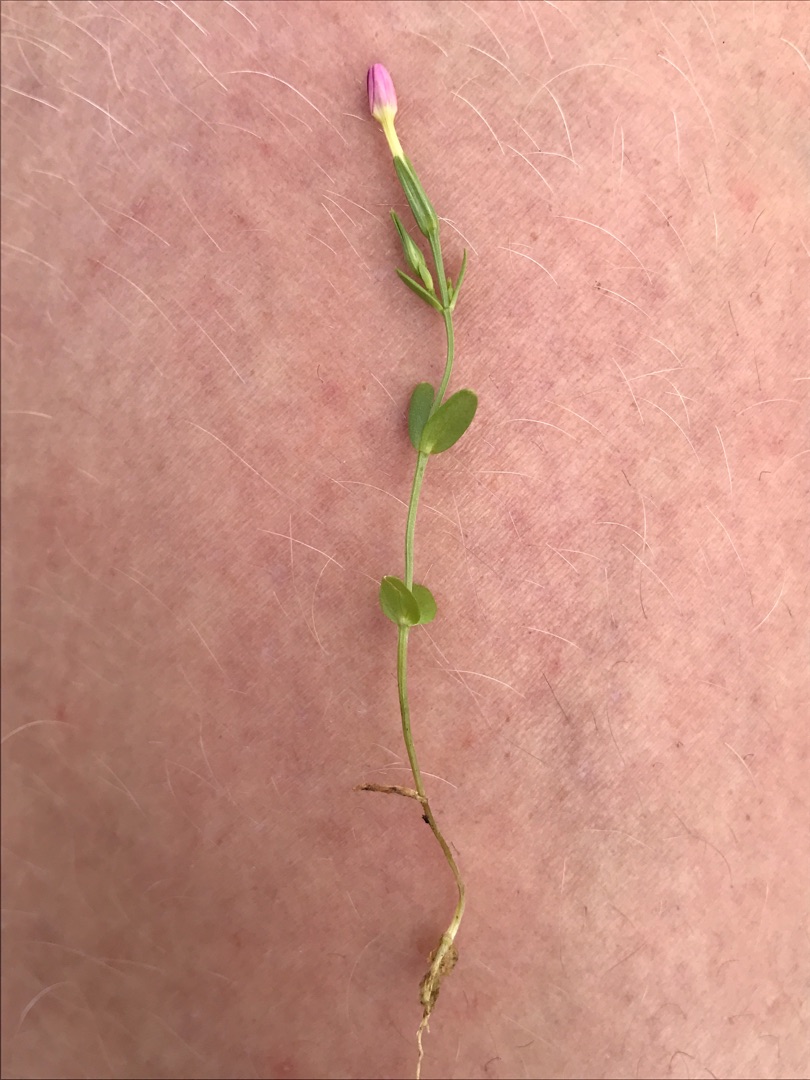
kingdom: Plantae
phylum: Tracheophyta
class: Magnoliopsida
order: Gentianales
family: Gentianaceae
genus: Centaurium
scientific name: Centaurium pulchellum
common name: Liden tusindgylden
